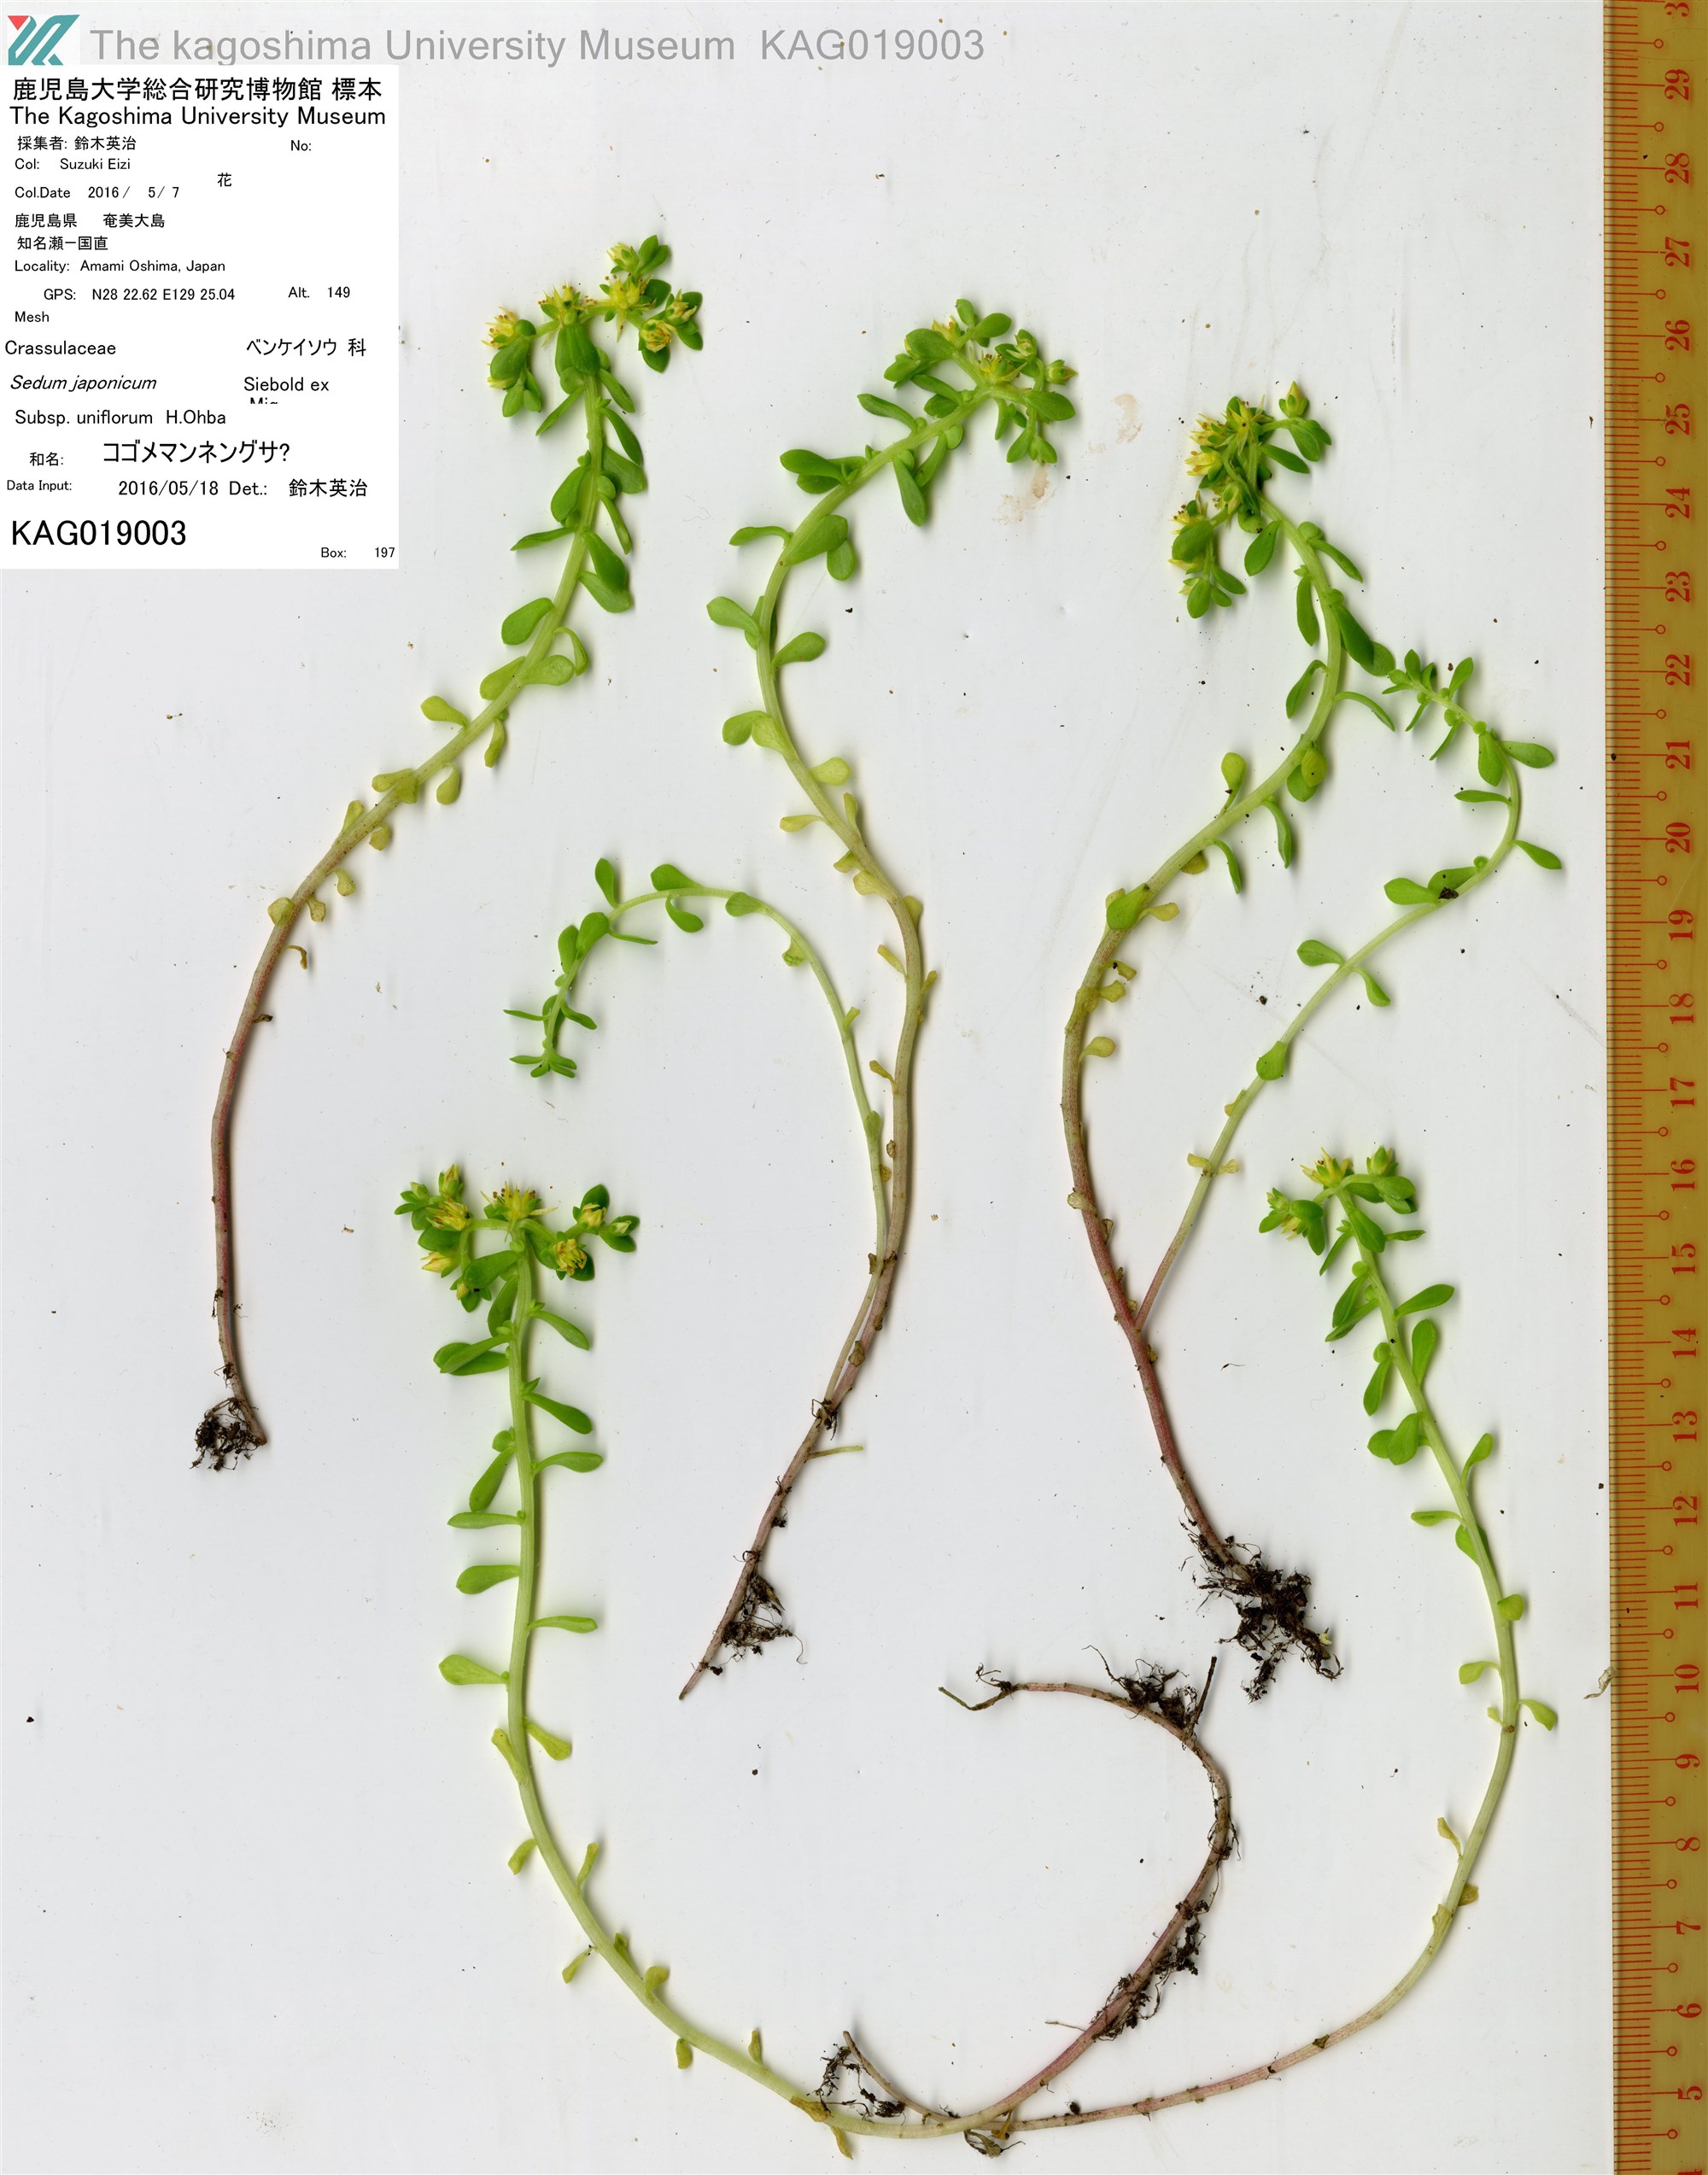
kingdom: Plantae
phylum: Tracheophyta
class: Magnoliopsida
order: Saxifragales
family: Crassulaceae
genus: Sedum
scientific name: Sedum formosanum
